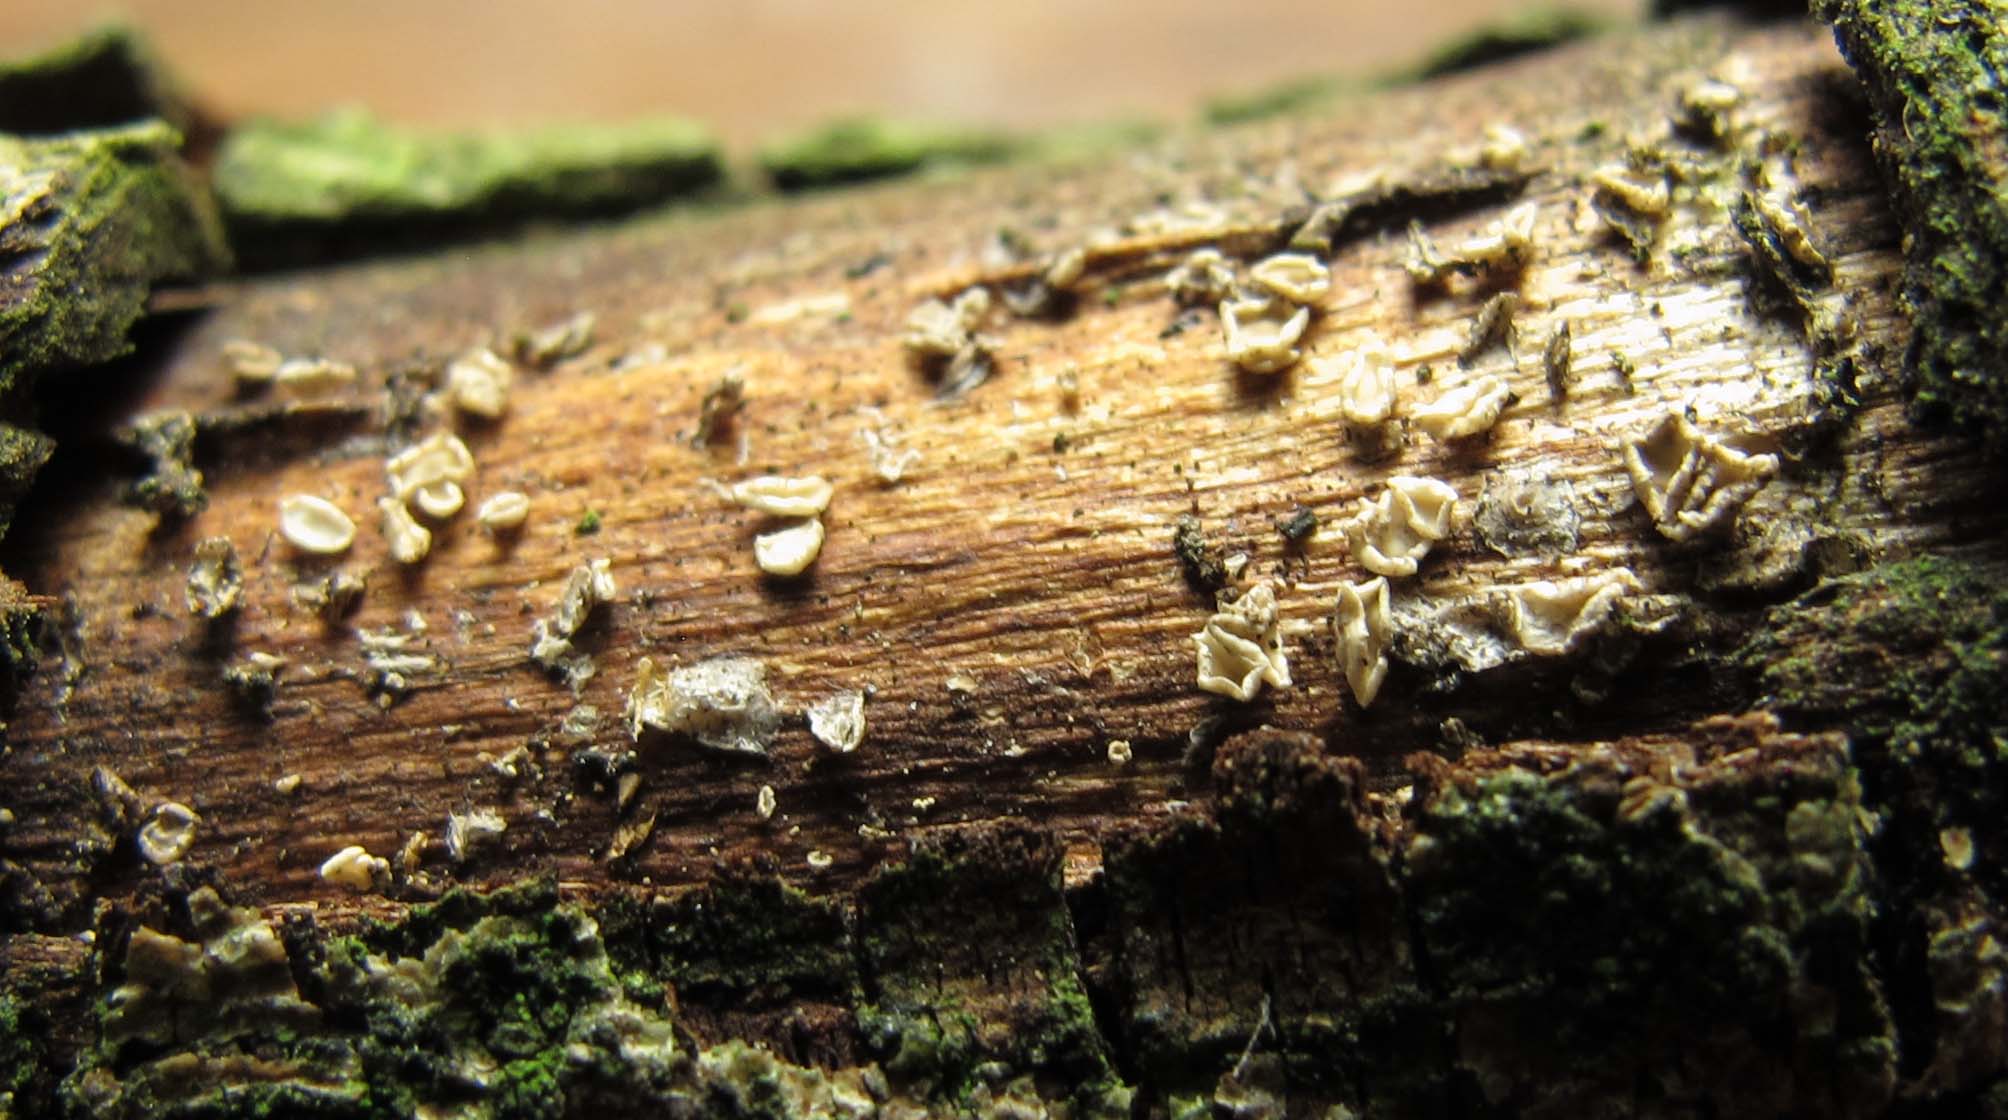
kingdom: Fungi
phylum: Ascomycota
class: Leotiomycetes
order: Helotiales
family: Pezizellaceae
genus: Calycina
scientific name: Calycina vulgaris
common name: pølsesporet gulskive
